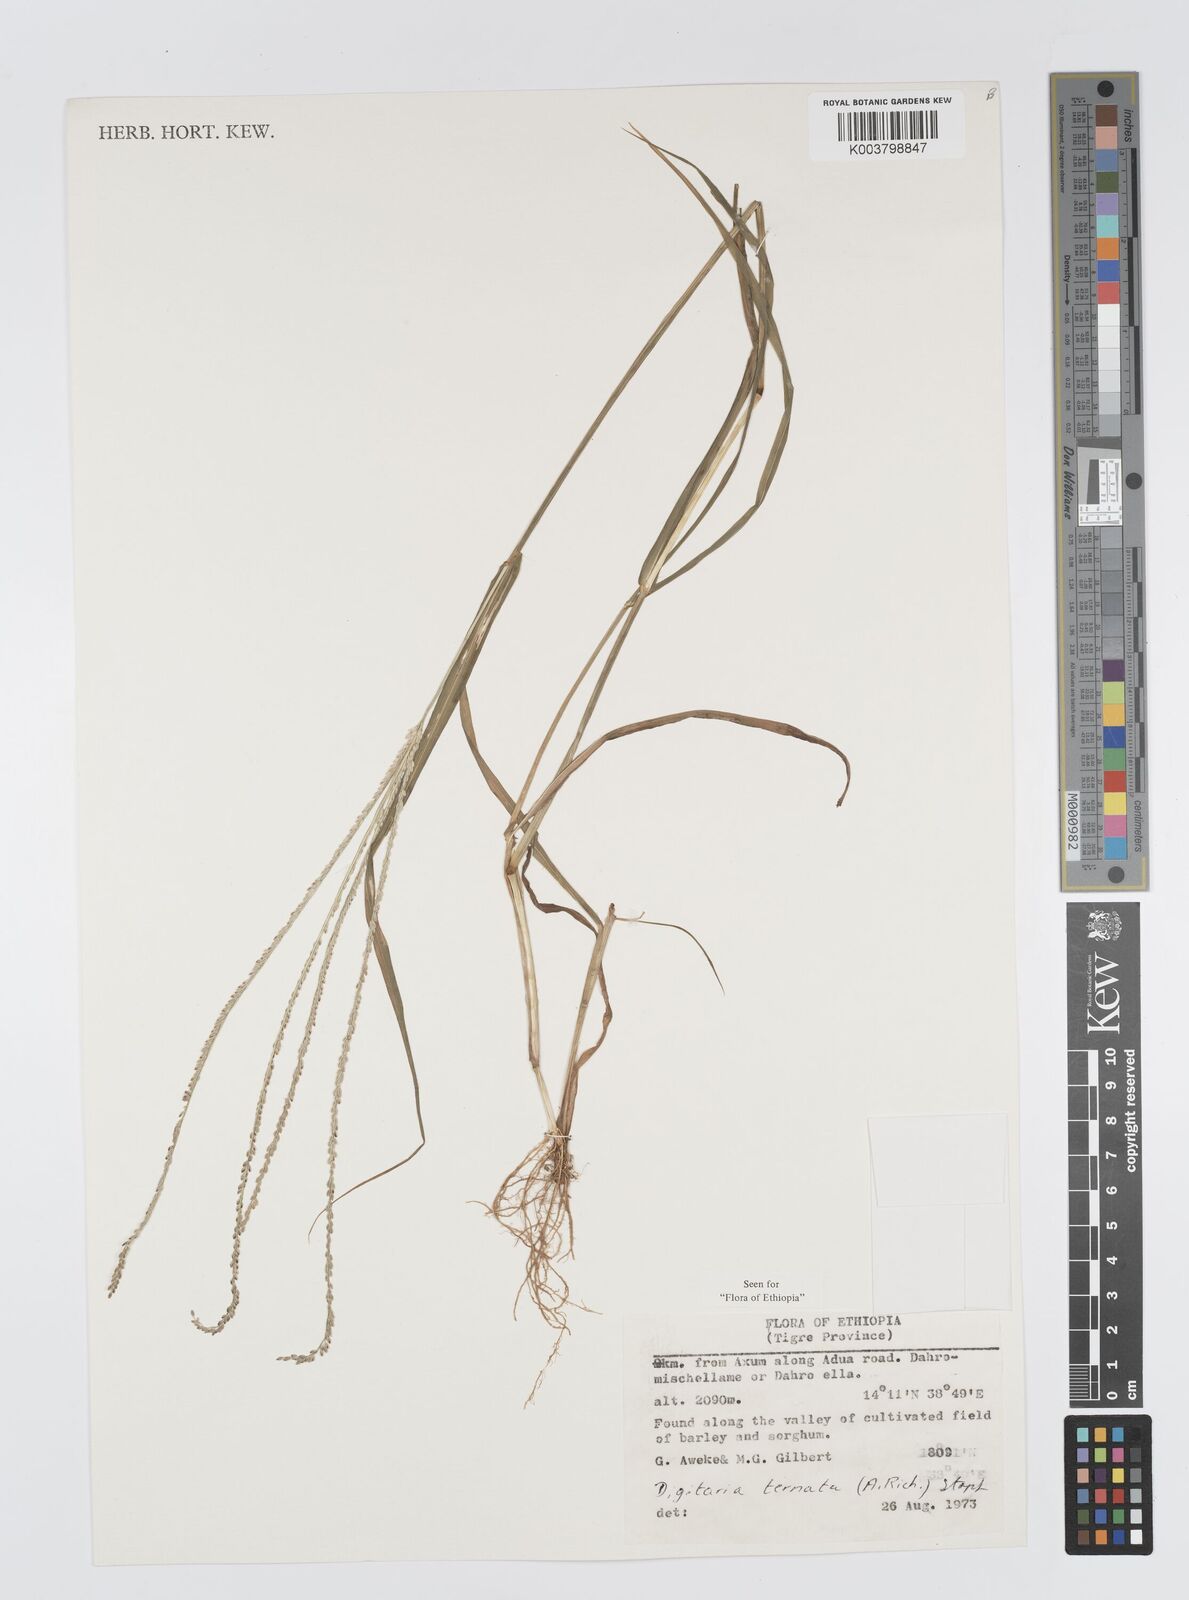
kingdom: Plantae
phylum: Tracheophyta
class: Liliopsida
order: Poales
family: Poaceae
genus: Digitaria
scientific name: Digitaria ternata
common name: Blackseed crabgrass
